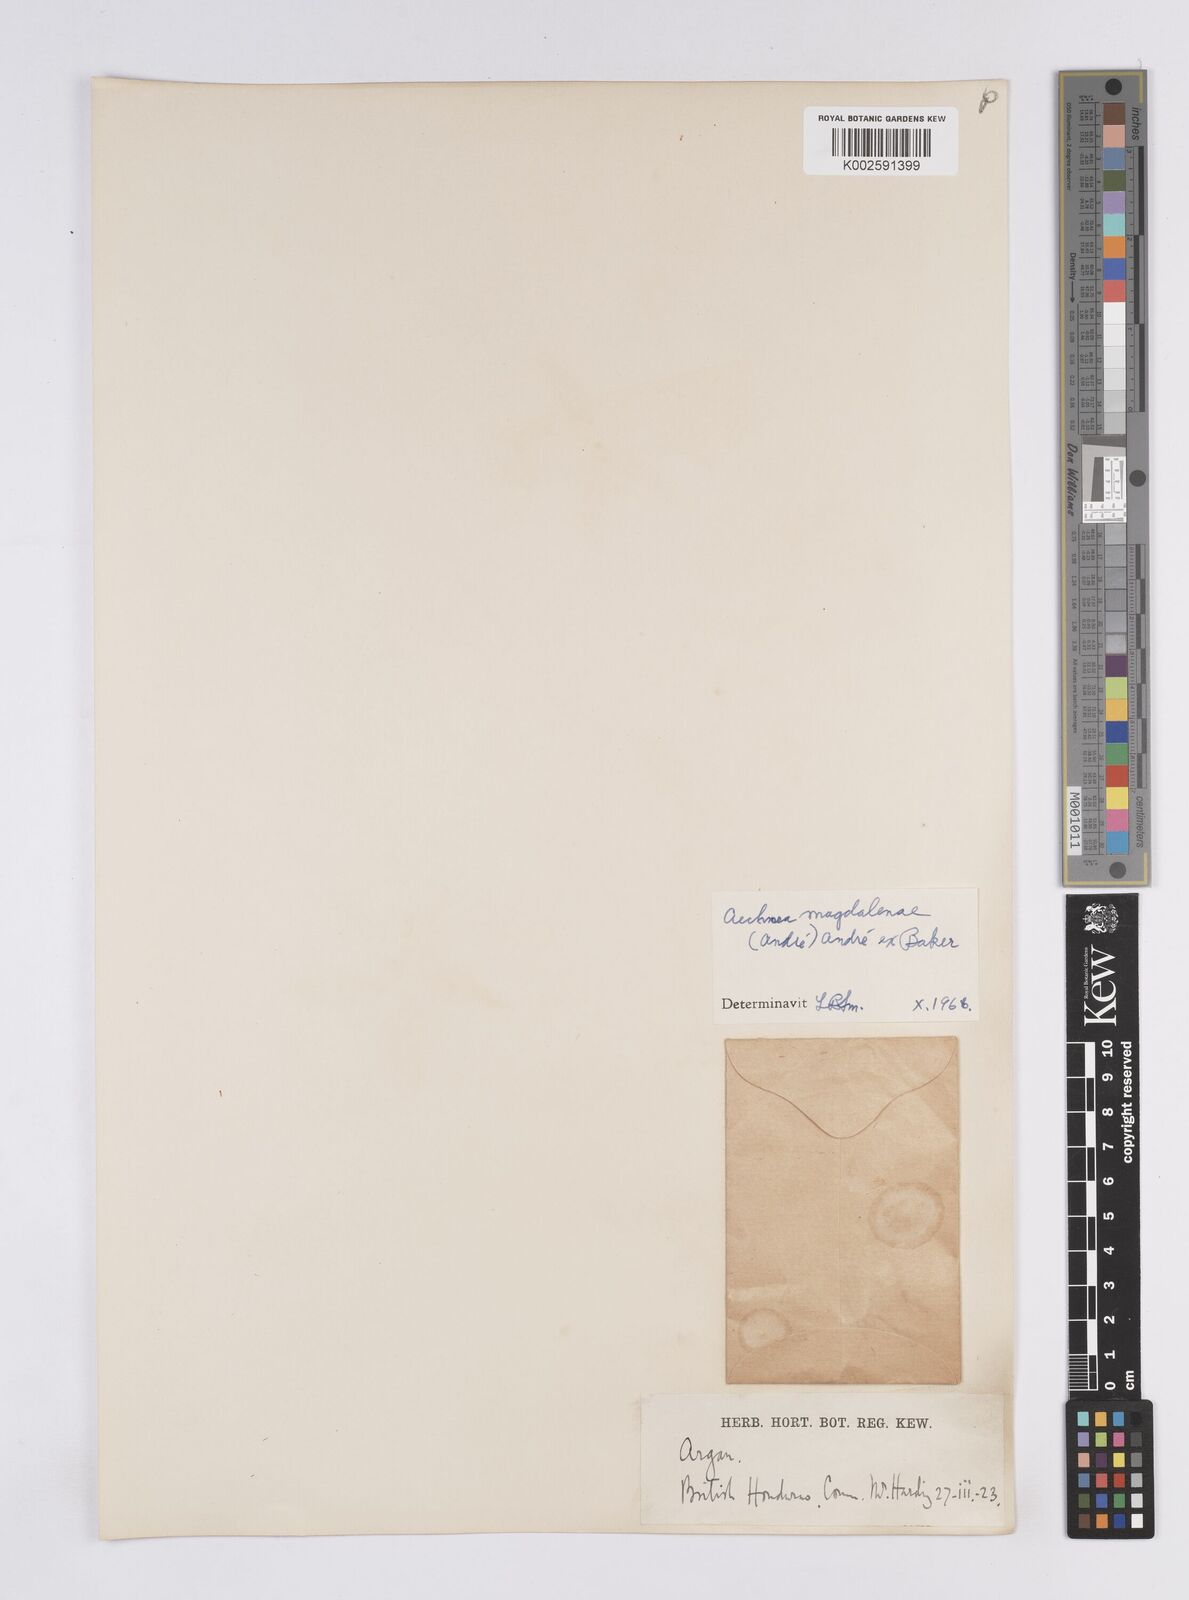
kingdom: Plantae
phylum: Tracheophyta
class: Liliopsida
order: Poales
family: Bromeliaceae
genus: Aechmea
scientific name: Aechmea magdalenae
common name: Arghan
